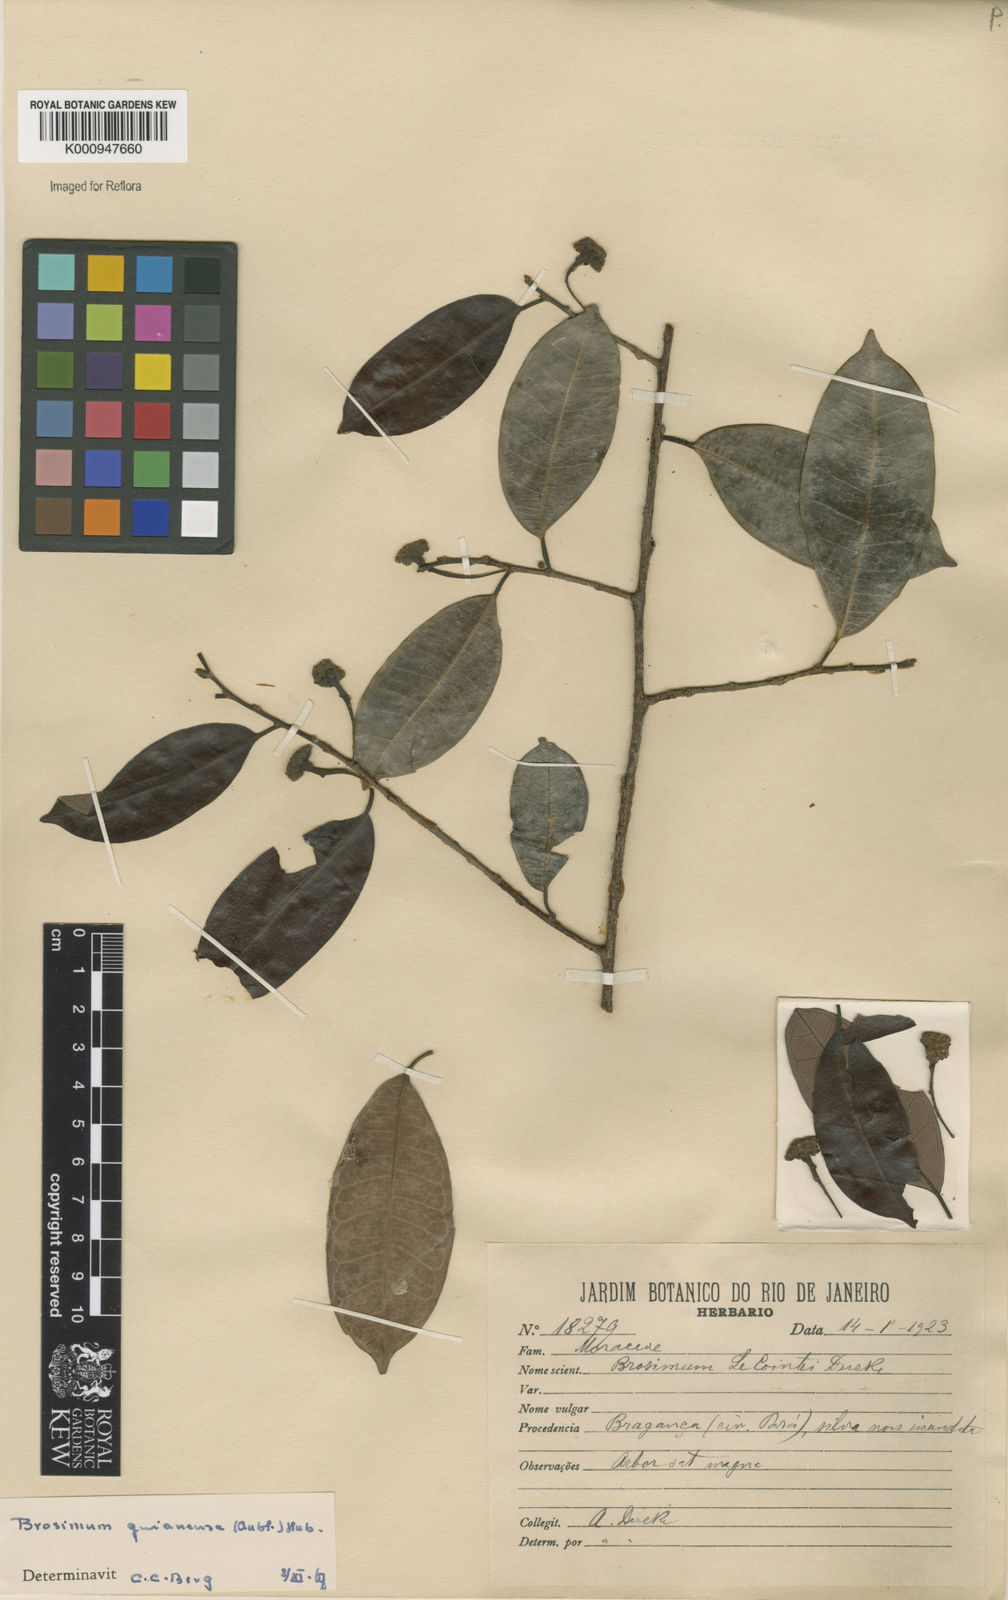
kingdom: Plantae
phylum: Tracheophyta
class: Magnoliopsida
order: Rosales
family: Moraceae
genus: Brosimum
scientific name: Brosimum
